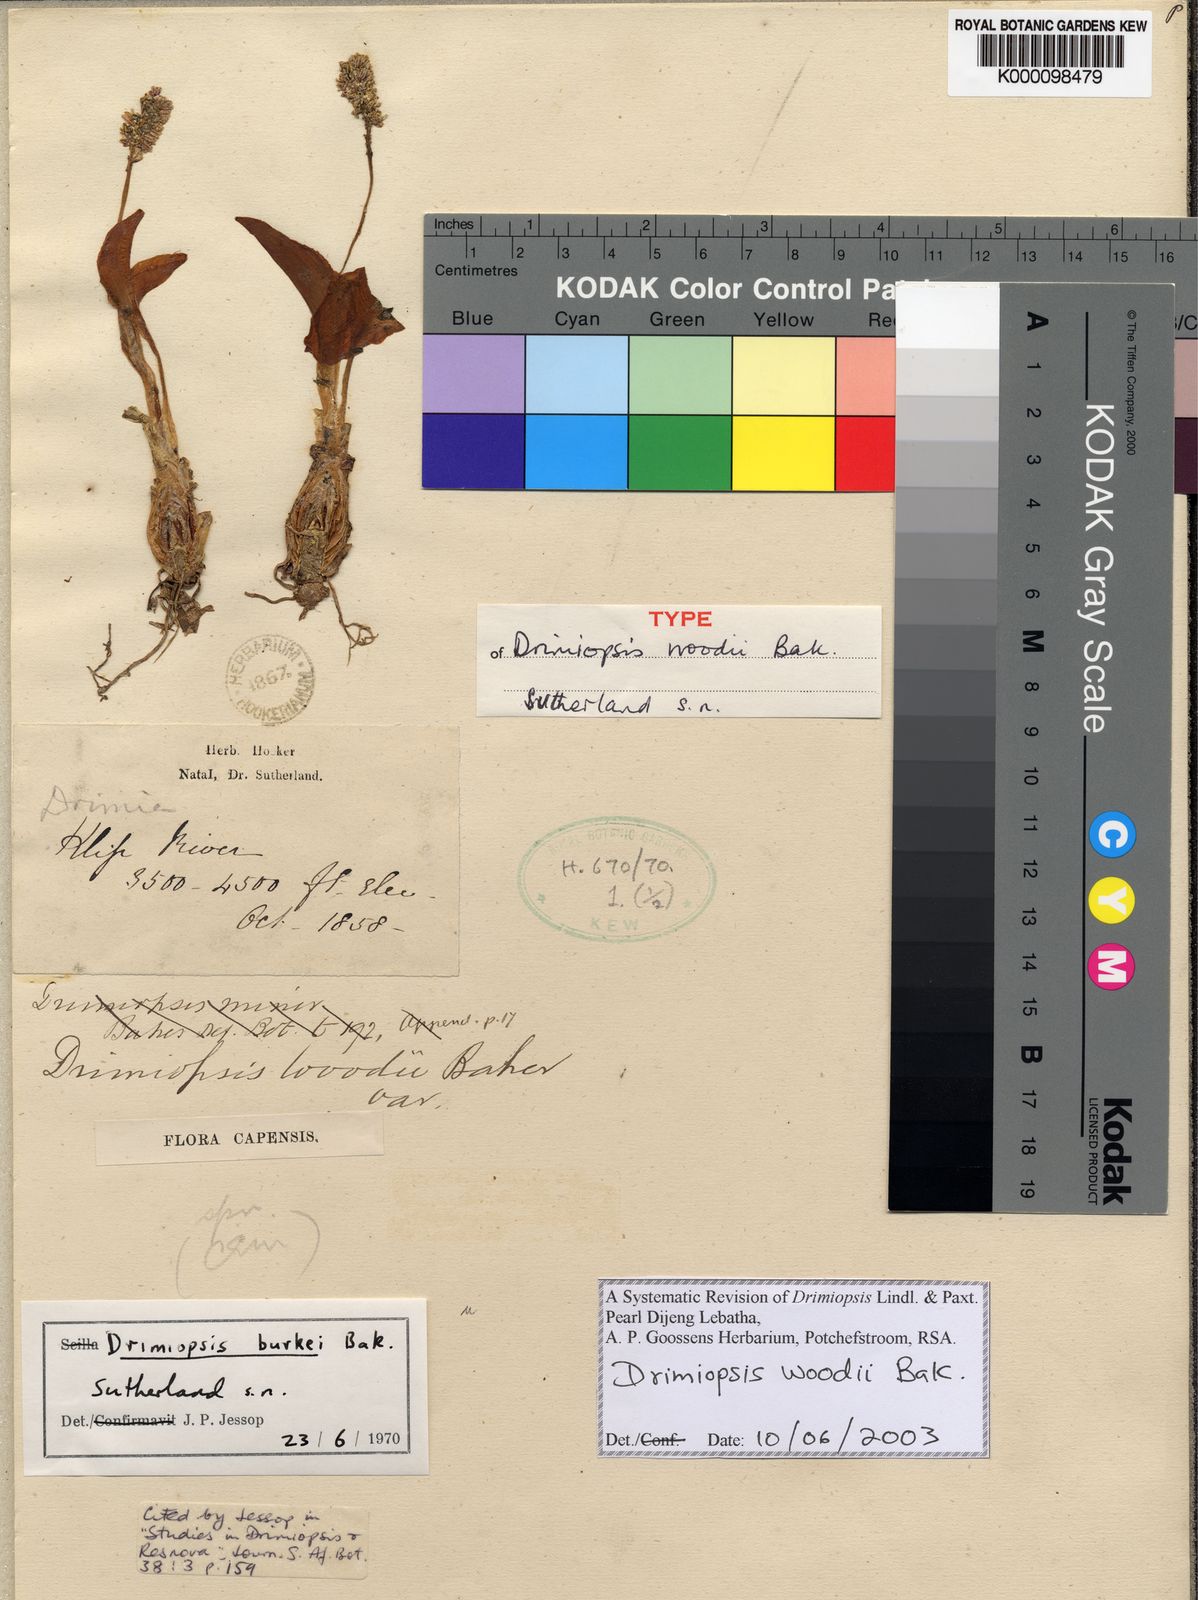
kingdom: Plantae
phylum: Tracheophyta
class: Liliopsida
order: Asparagales
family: Asparagaceae
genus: Drimiopsis
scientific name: Drimiopsis burkei
